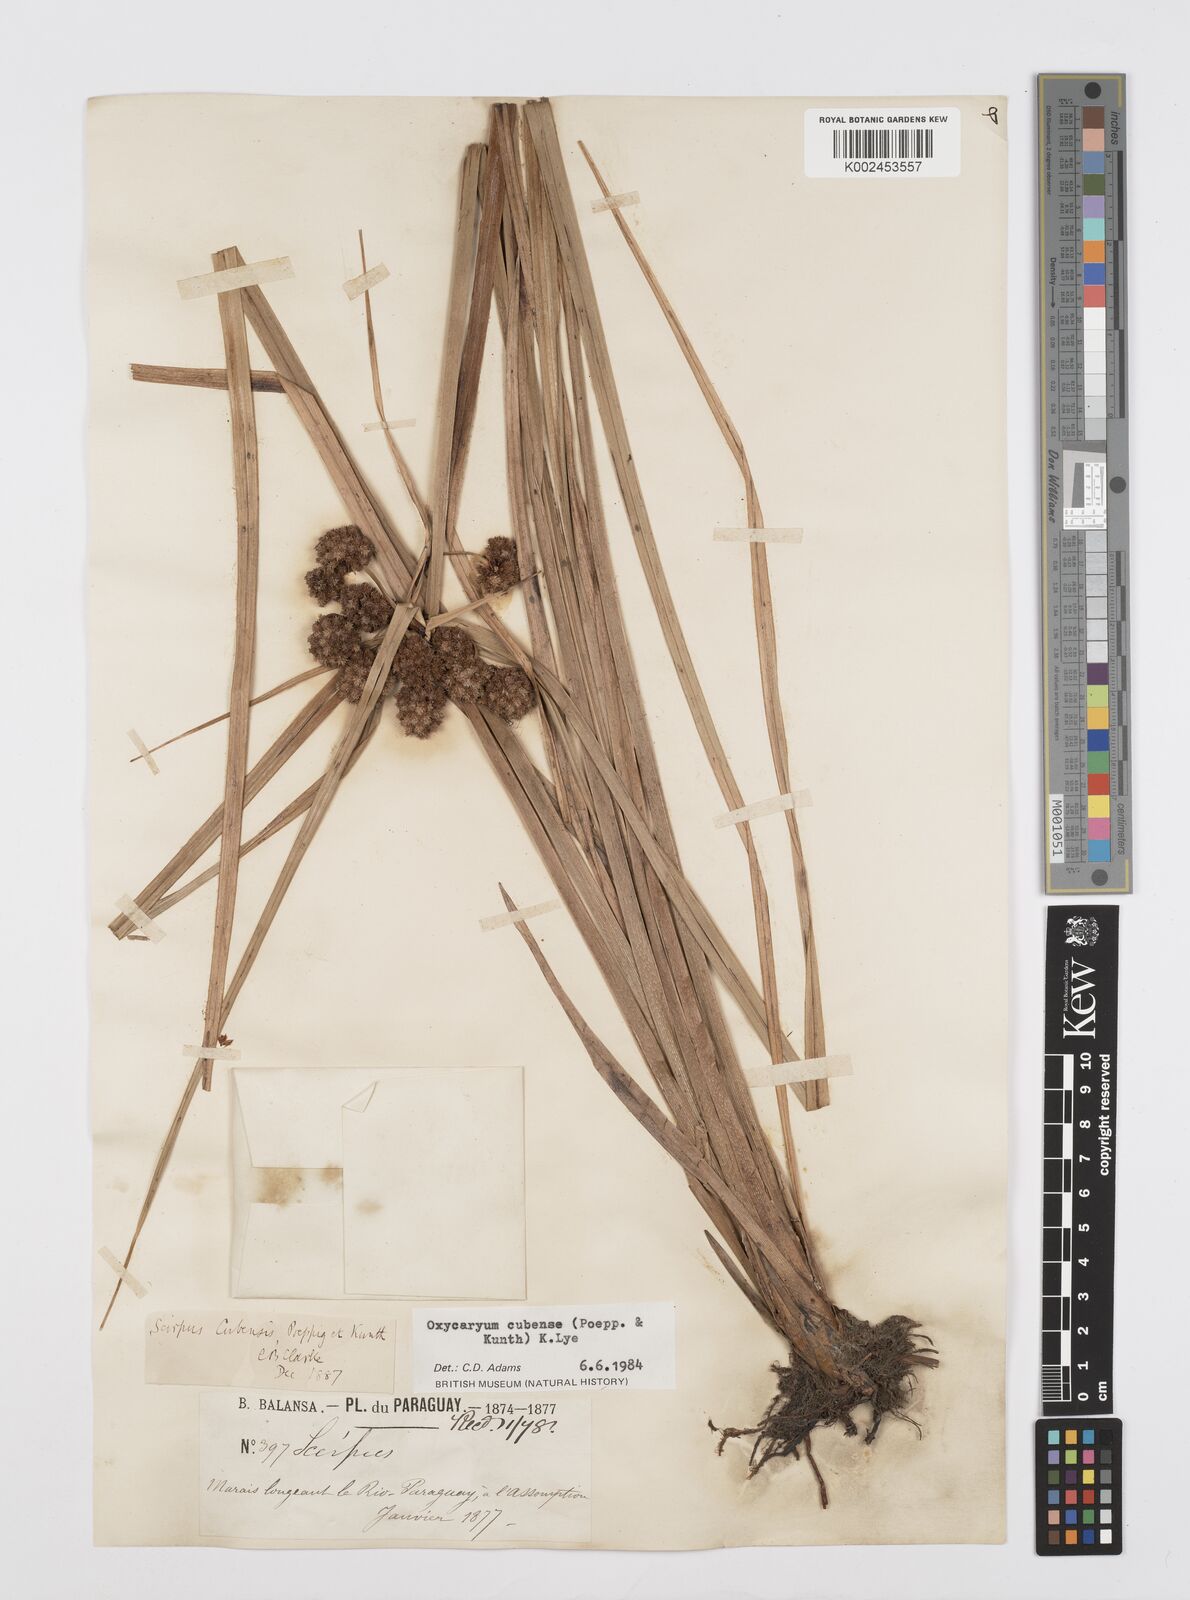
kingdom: Plantae
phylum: Tracheophyta
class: Liliopsida
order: Poales
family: Cyperaceae
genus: Cyperus
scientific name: Cyperus elegans
